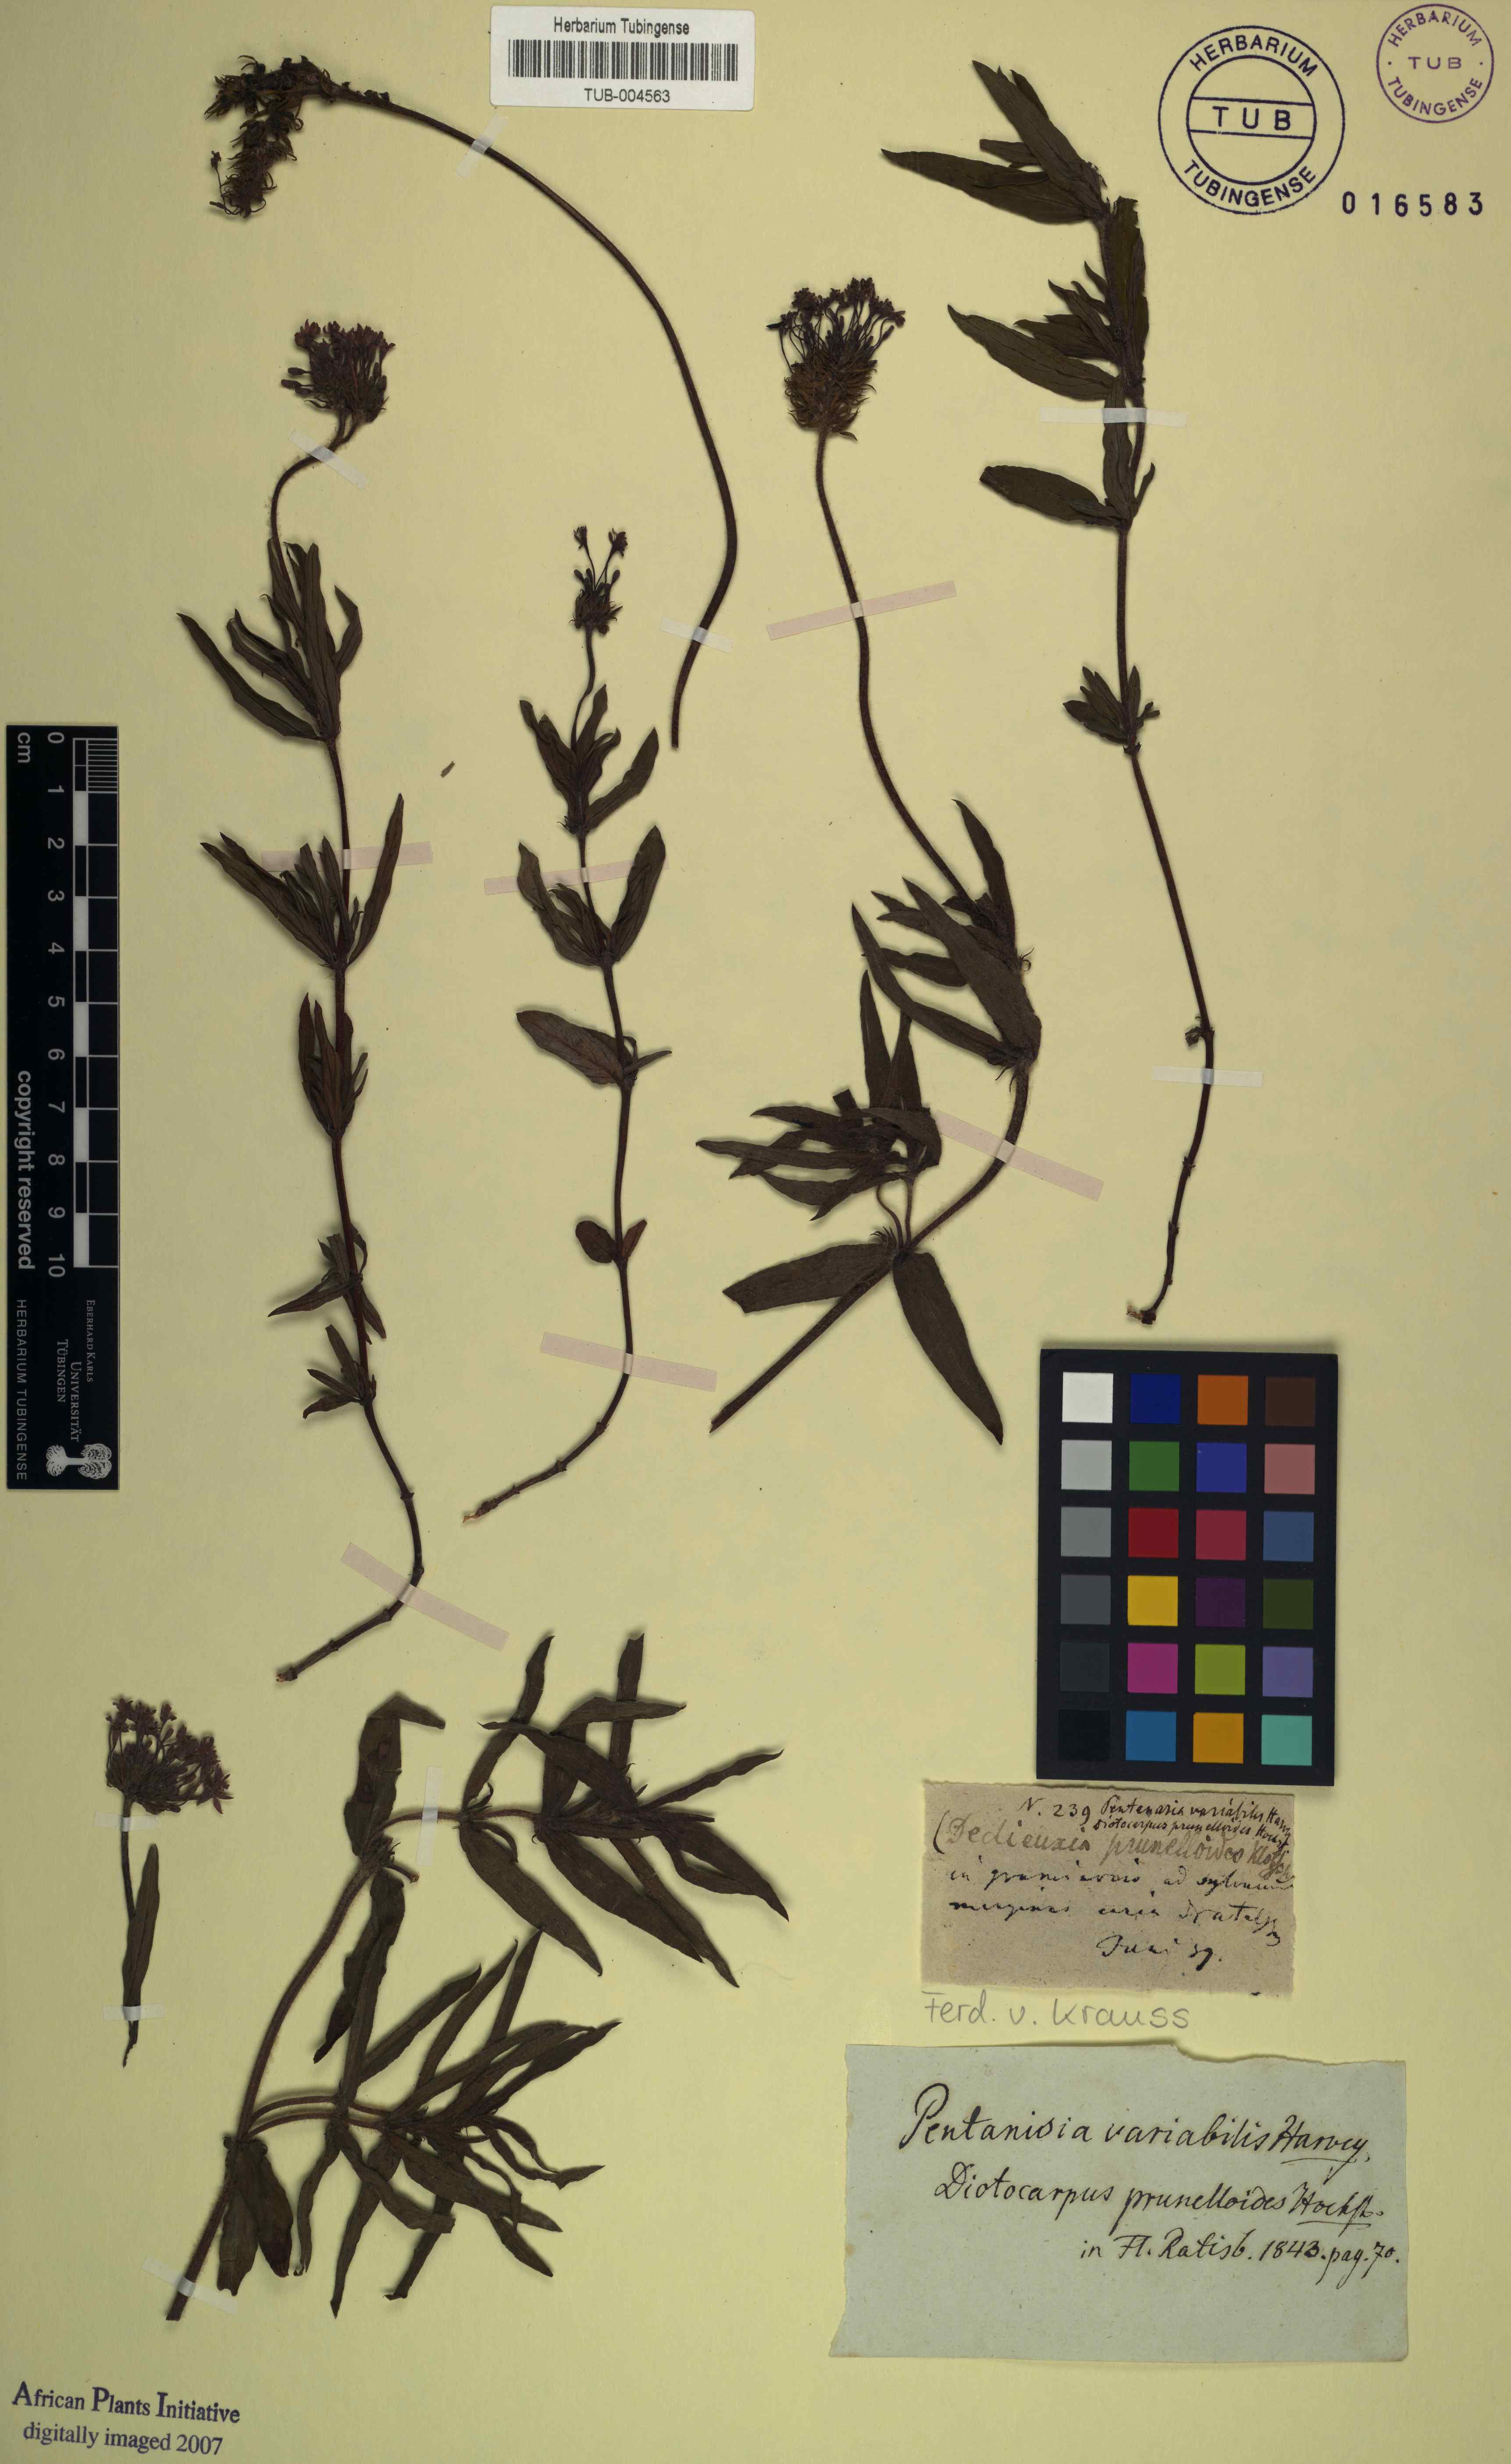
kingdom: Plantae
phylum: Tracheophyta
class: Magnoliopsida
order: Gentianales
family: Rubiaceae
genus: Pentanisia
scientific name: Pentanisia prunelloides
